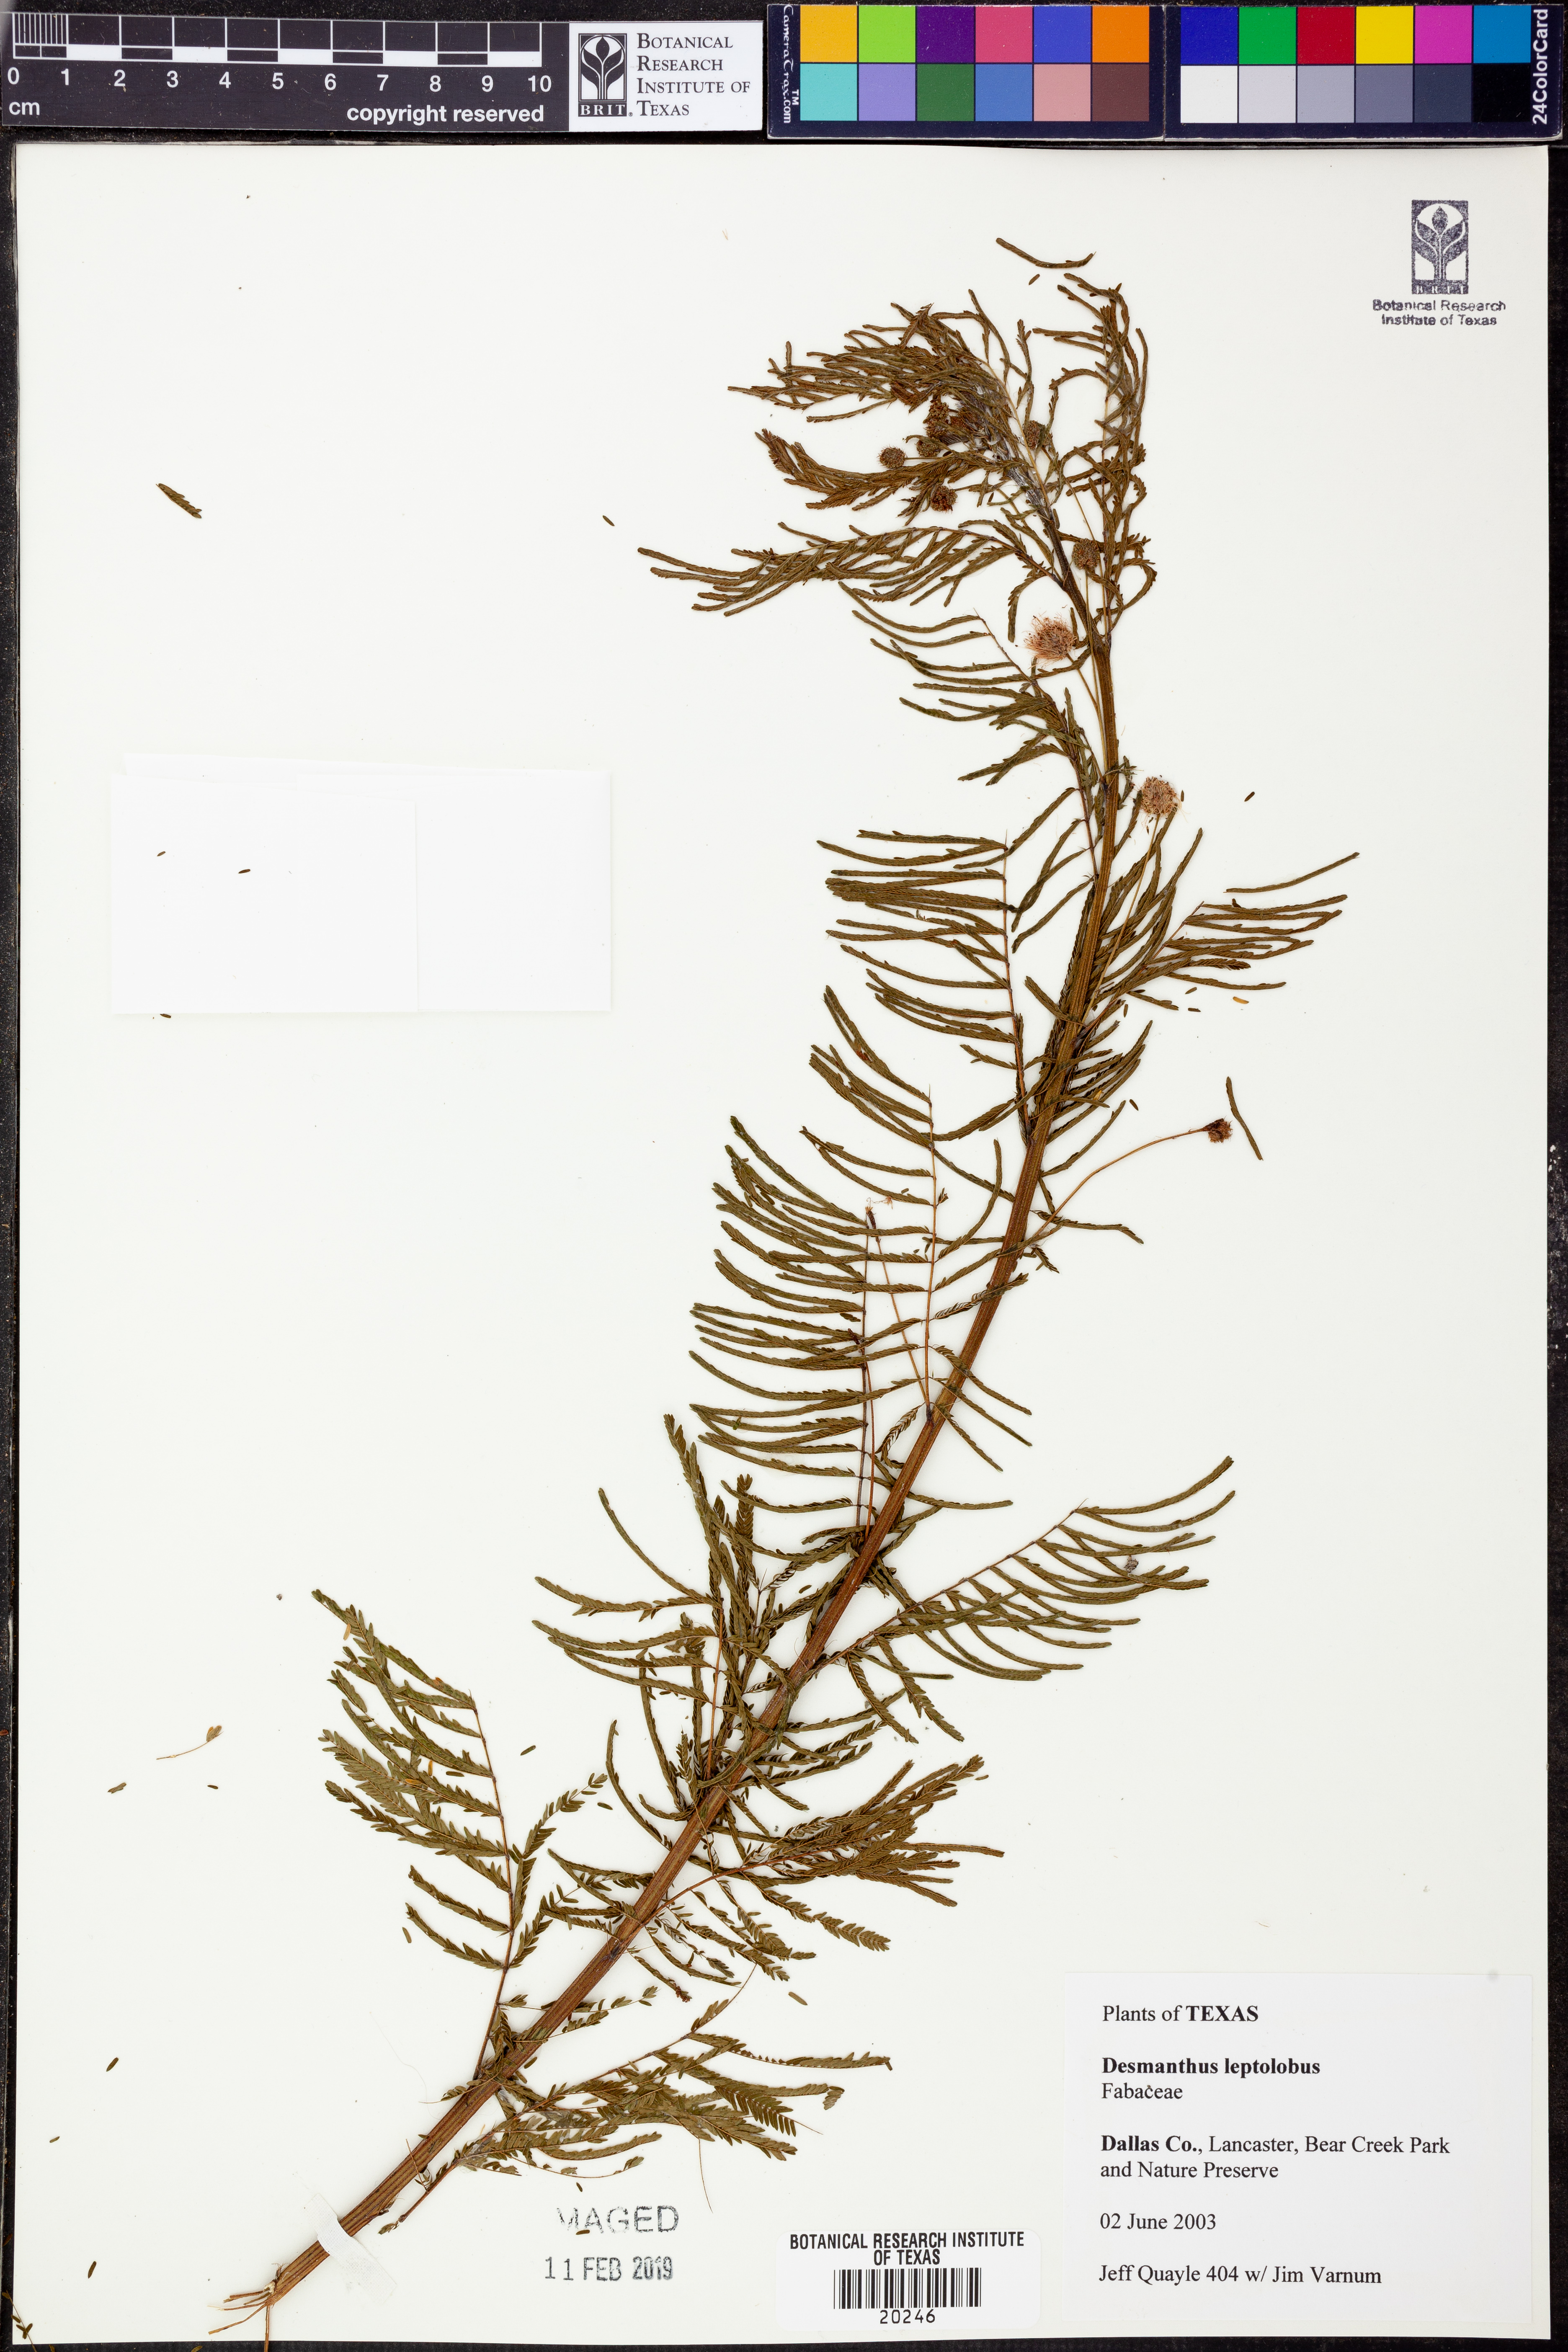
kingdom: Plantae
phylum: Tracheophyta
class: Magnoliopsida
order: Fabales
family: Fabaceae
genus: Desmanthus
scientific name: Desmanthus leptolobus
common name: Prairie-mimosa
